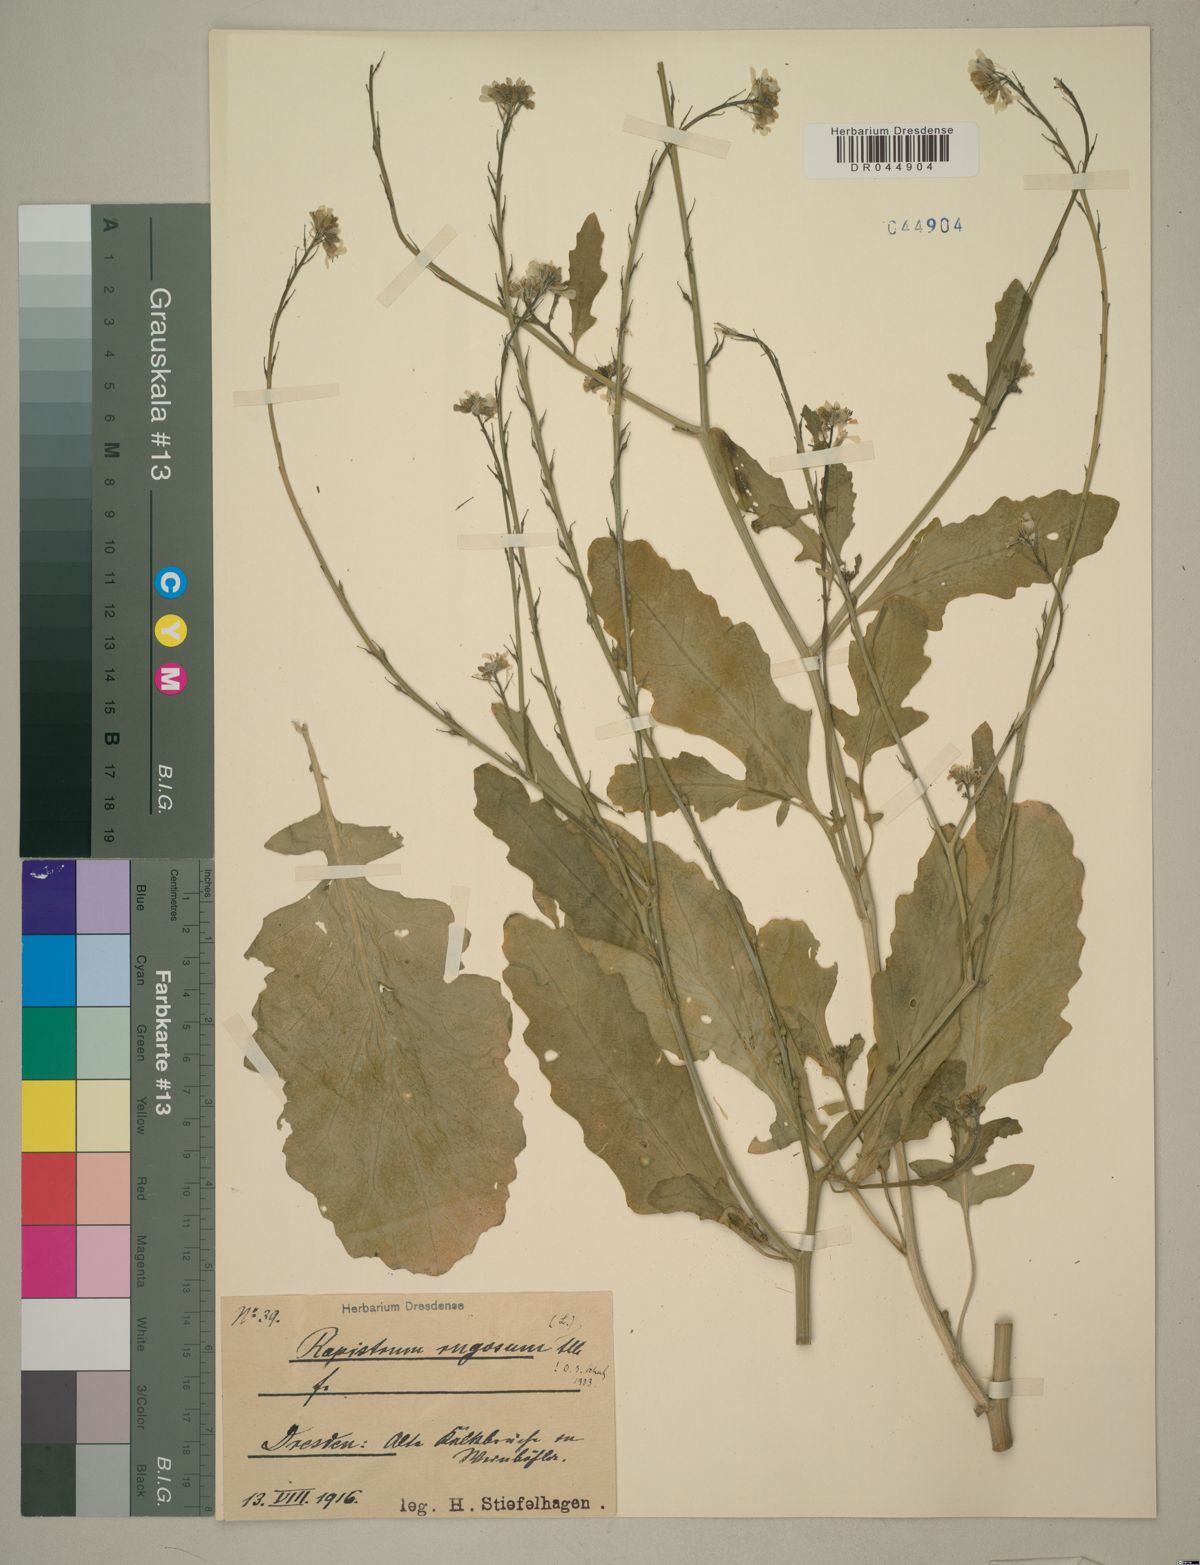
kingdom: Plantae
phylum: Tracheophyta
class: Magnoliopsida
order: Brassicales
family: Brassicaceae
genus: Rapistrum
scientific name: Rapistrum rugosum
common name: Annual bastardcabbage
